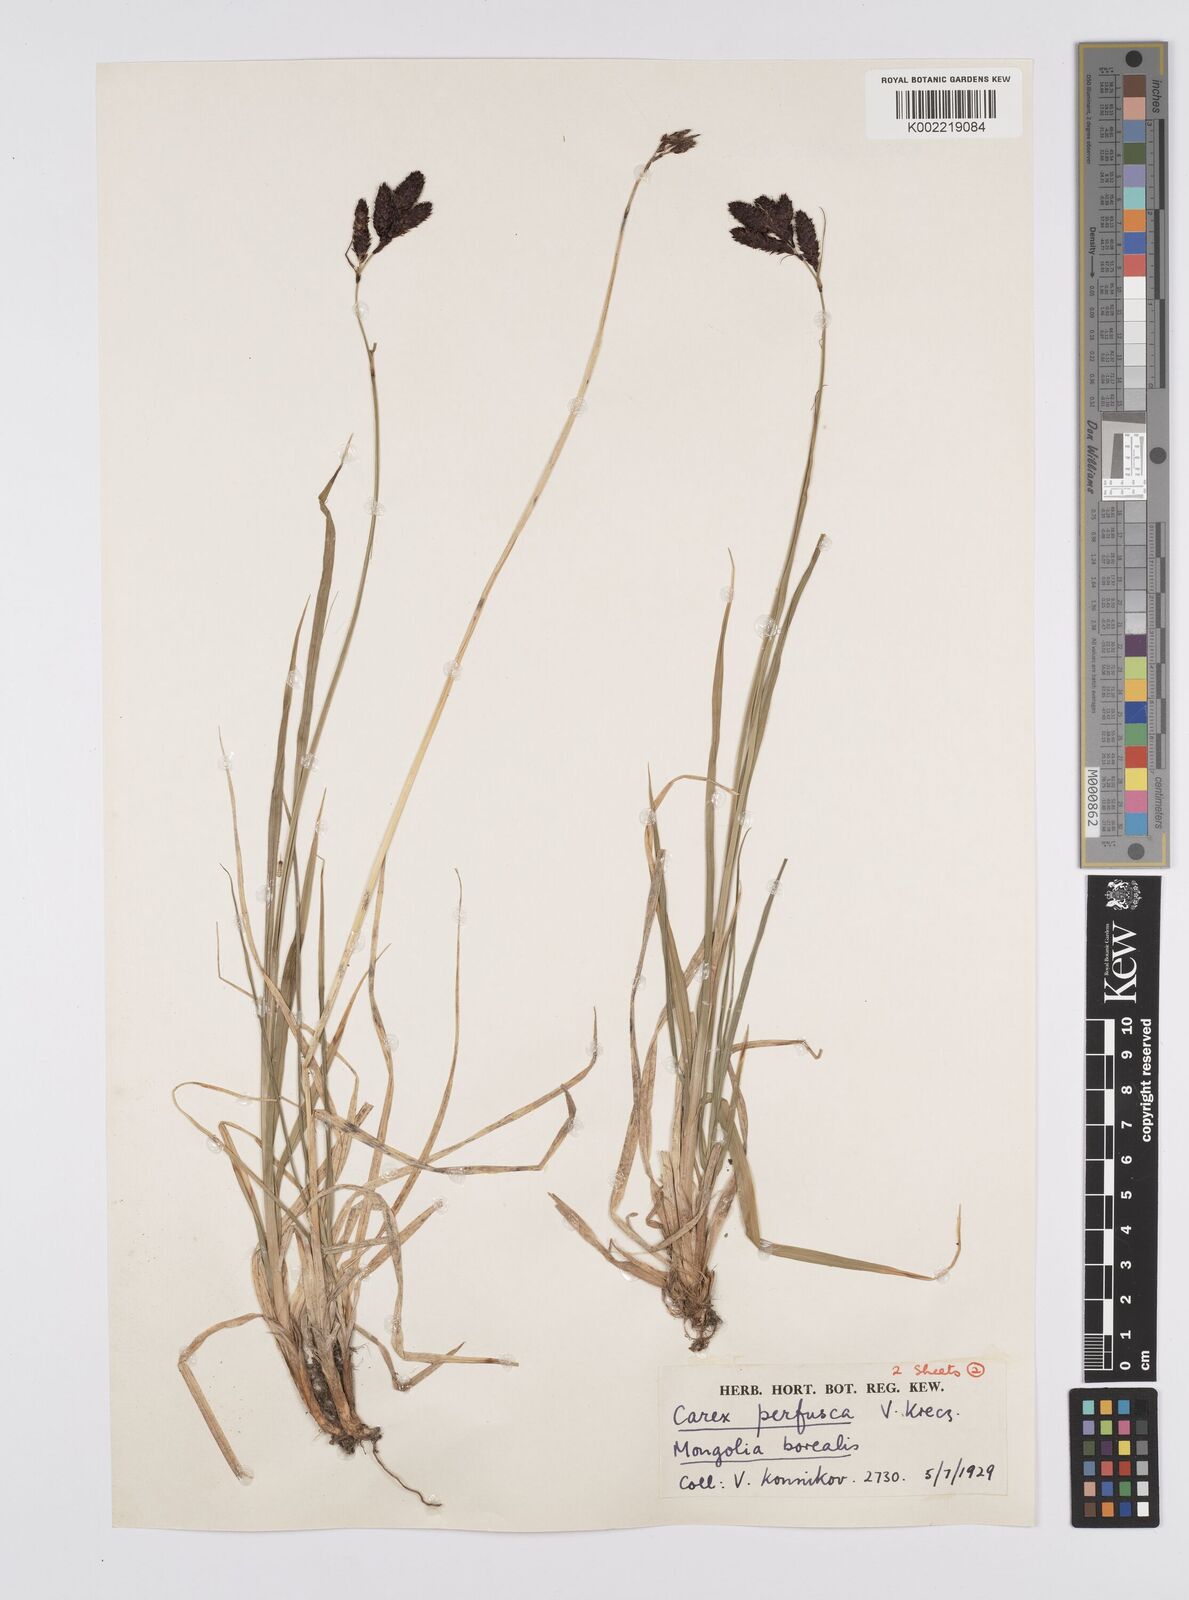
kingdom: Plantae
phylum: Tracheophyta
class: Liliopsida
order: Poales
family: Cyperaceae
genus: Carex
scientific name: Carex aterrima
